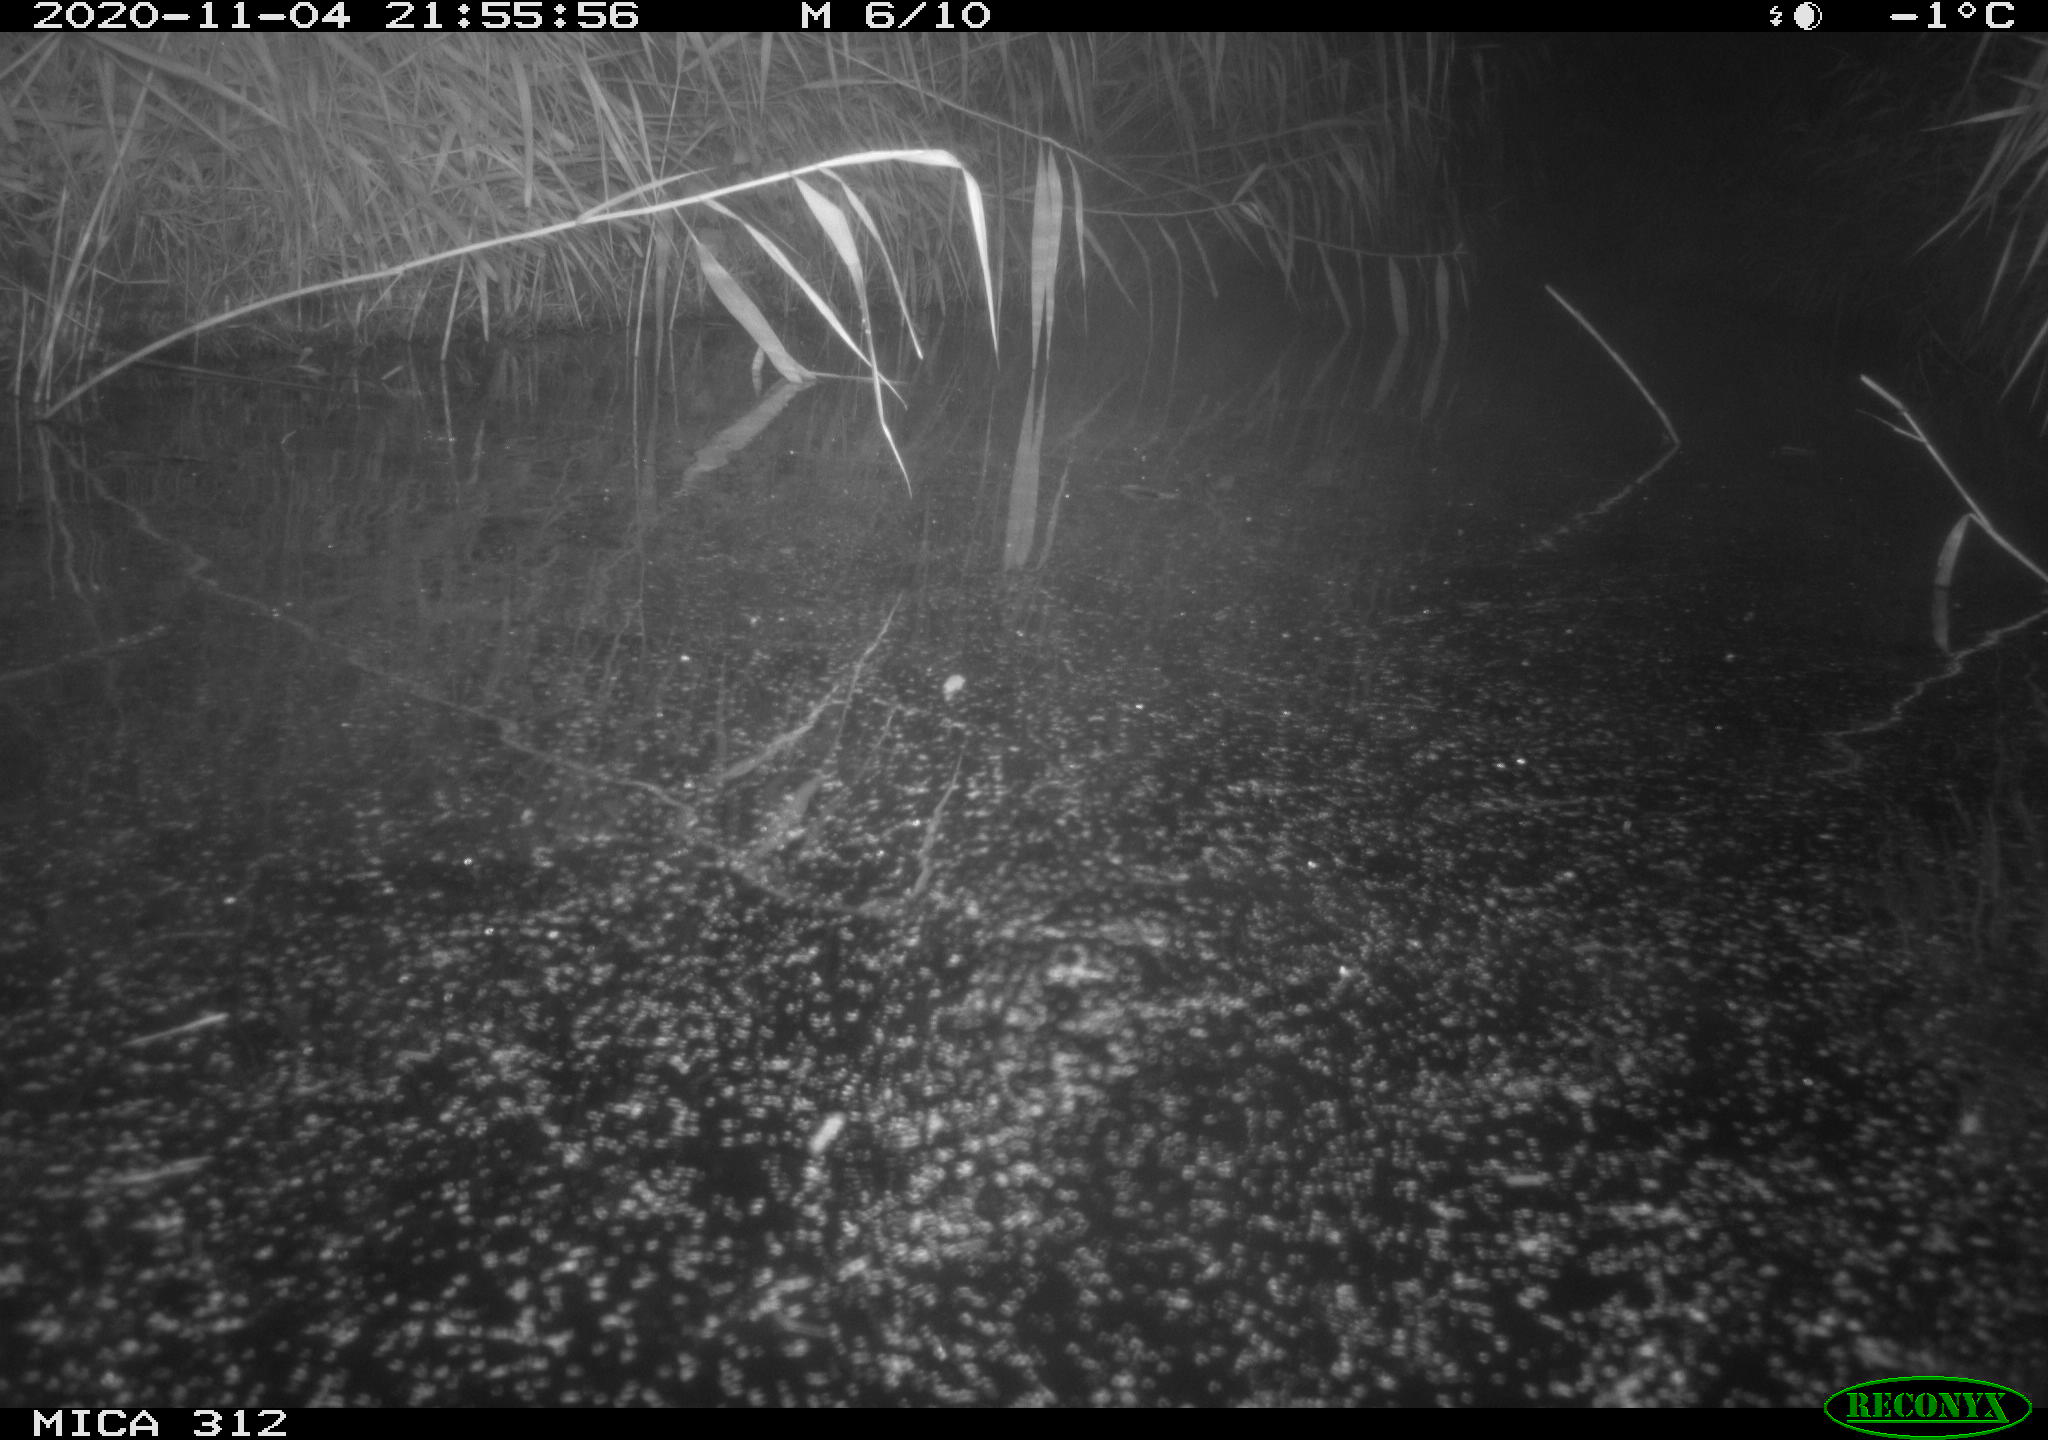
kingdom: Animalia
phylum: Chordata
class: Mammalia
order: Rodentia
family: Muridae
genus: Rattus
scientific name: Rattus norvegicus
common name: Brown rat
